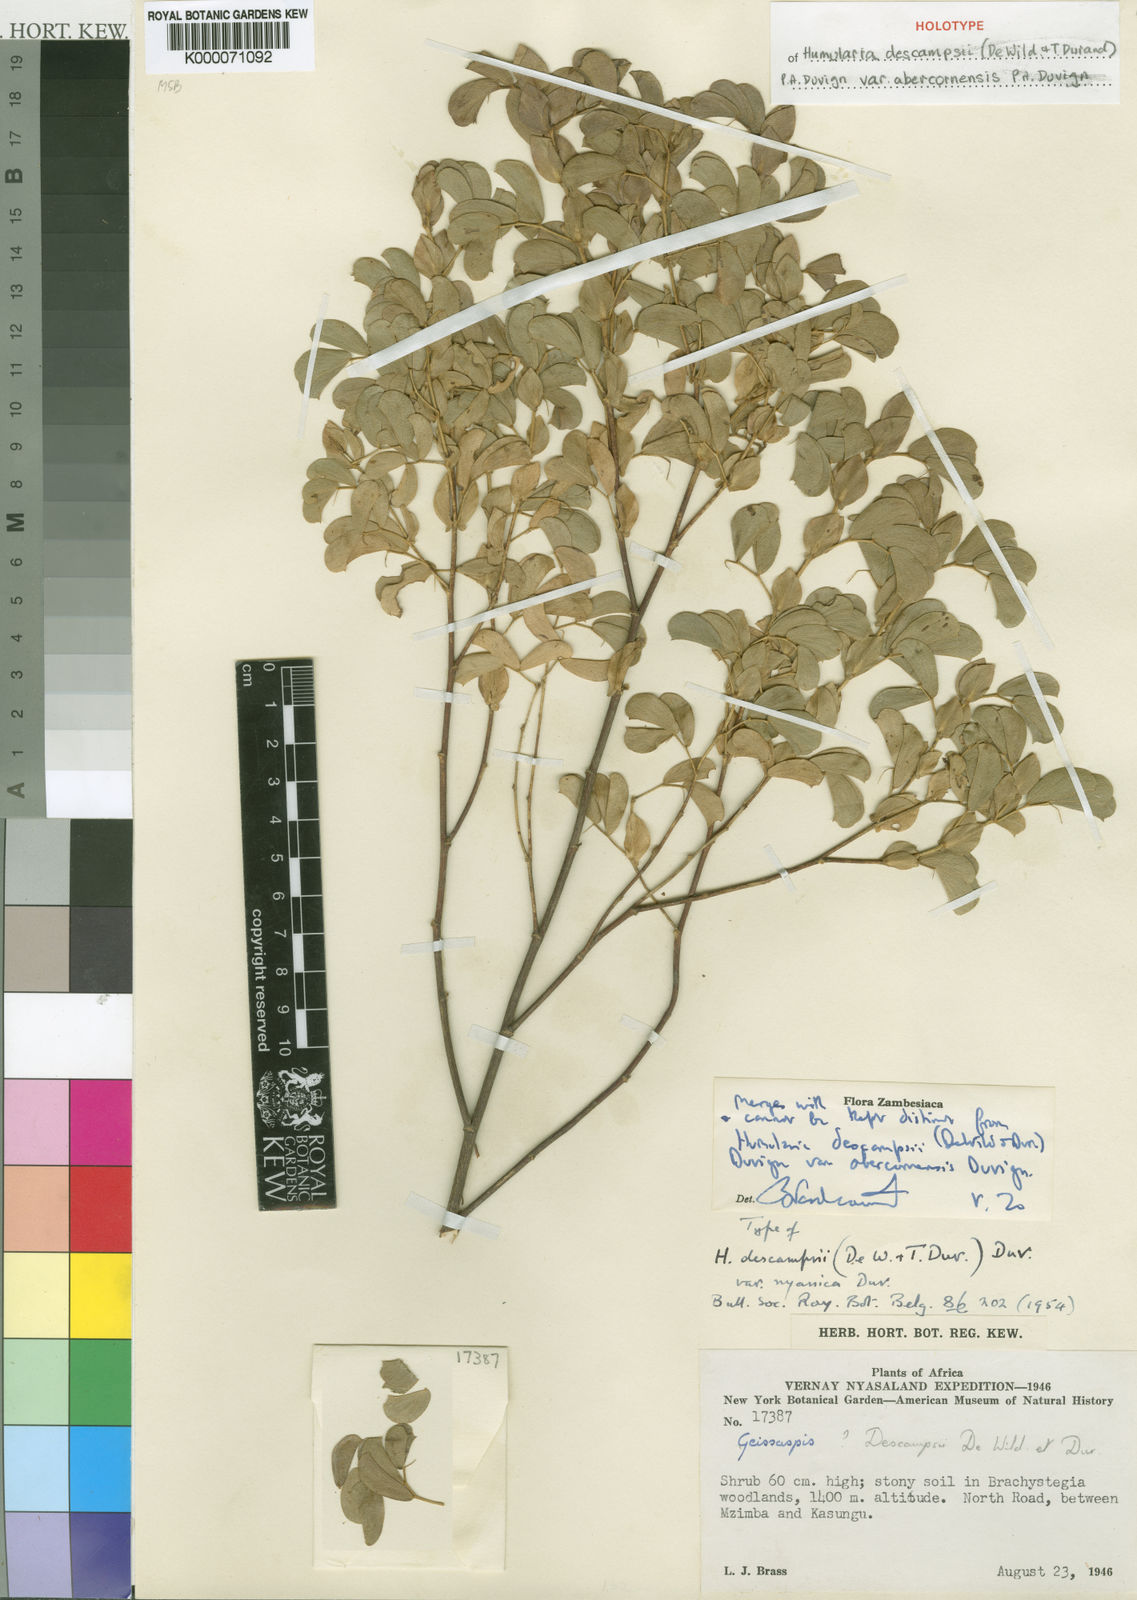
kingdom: Plantae
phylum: Tracheophyta
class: Magnoliopsida
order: Fabales
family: Fabaceae
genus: Humularia
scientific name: Humularia
